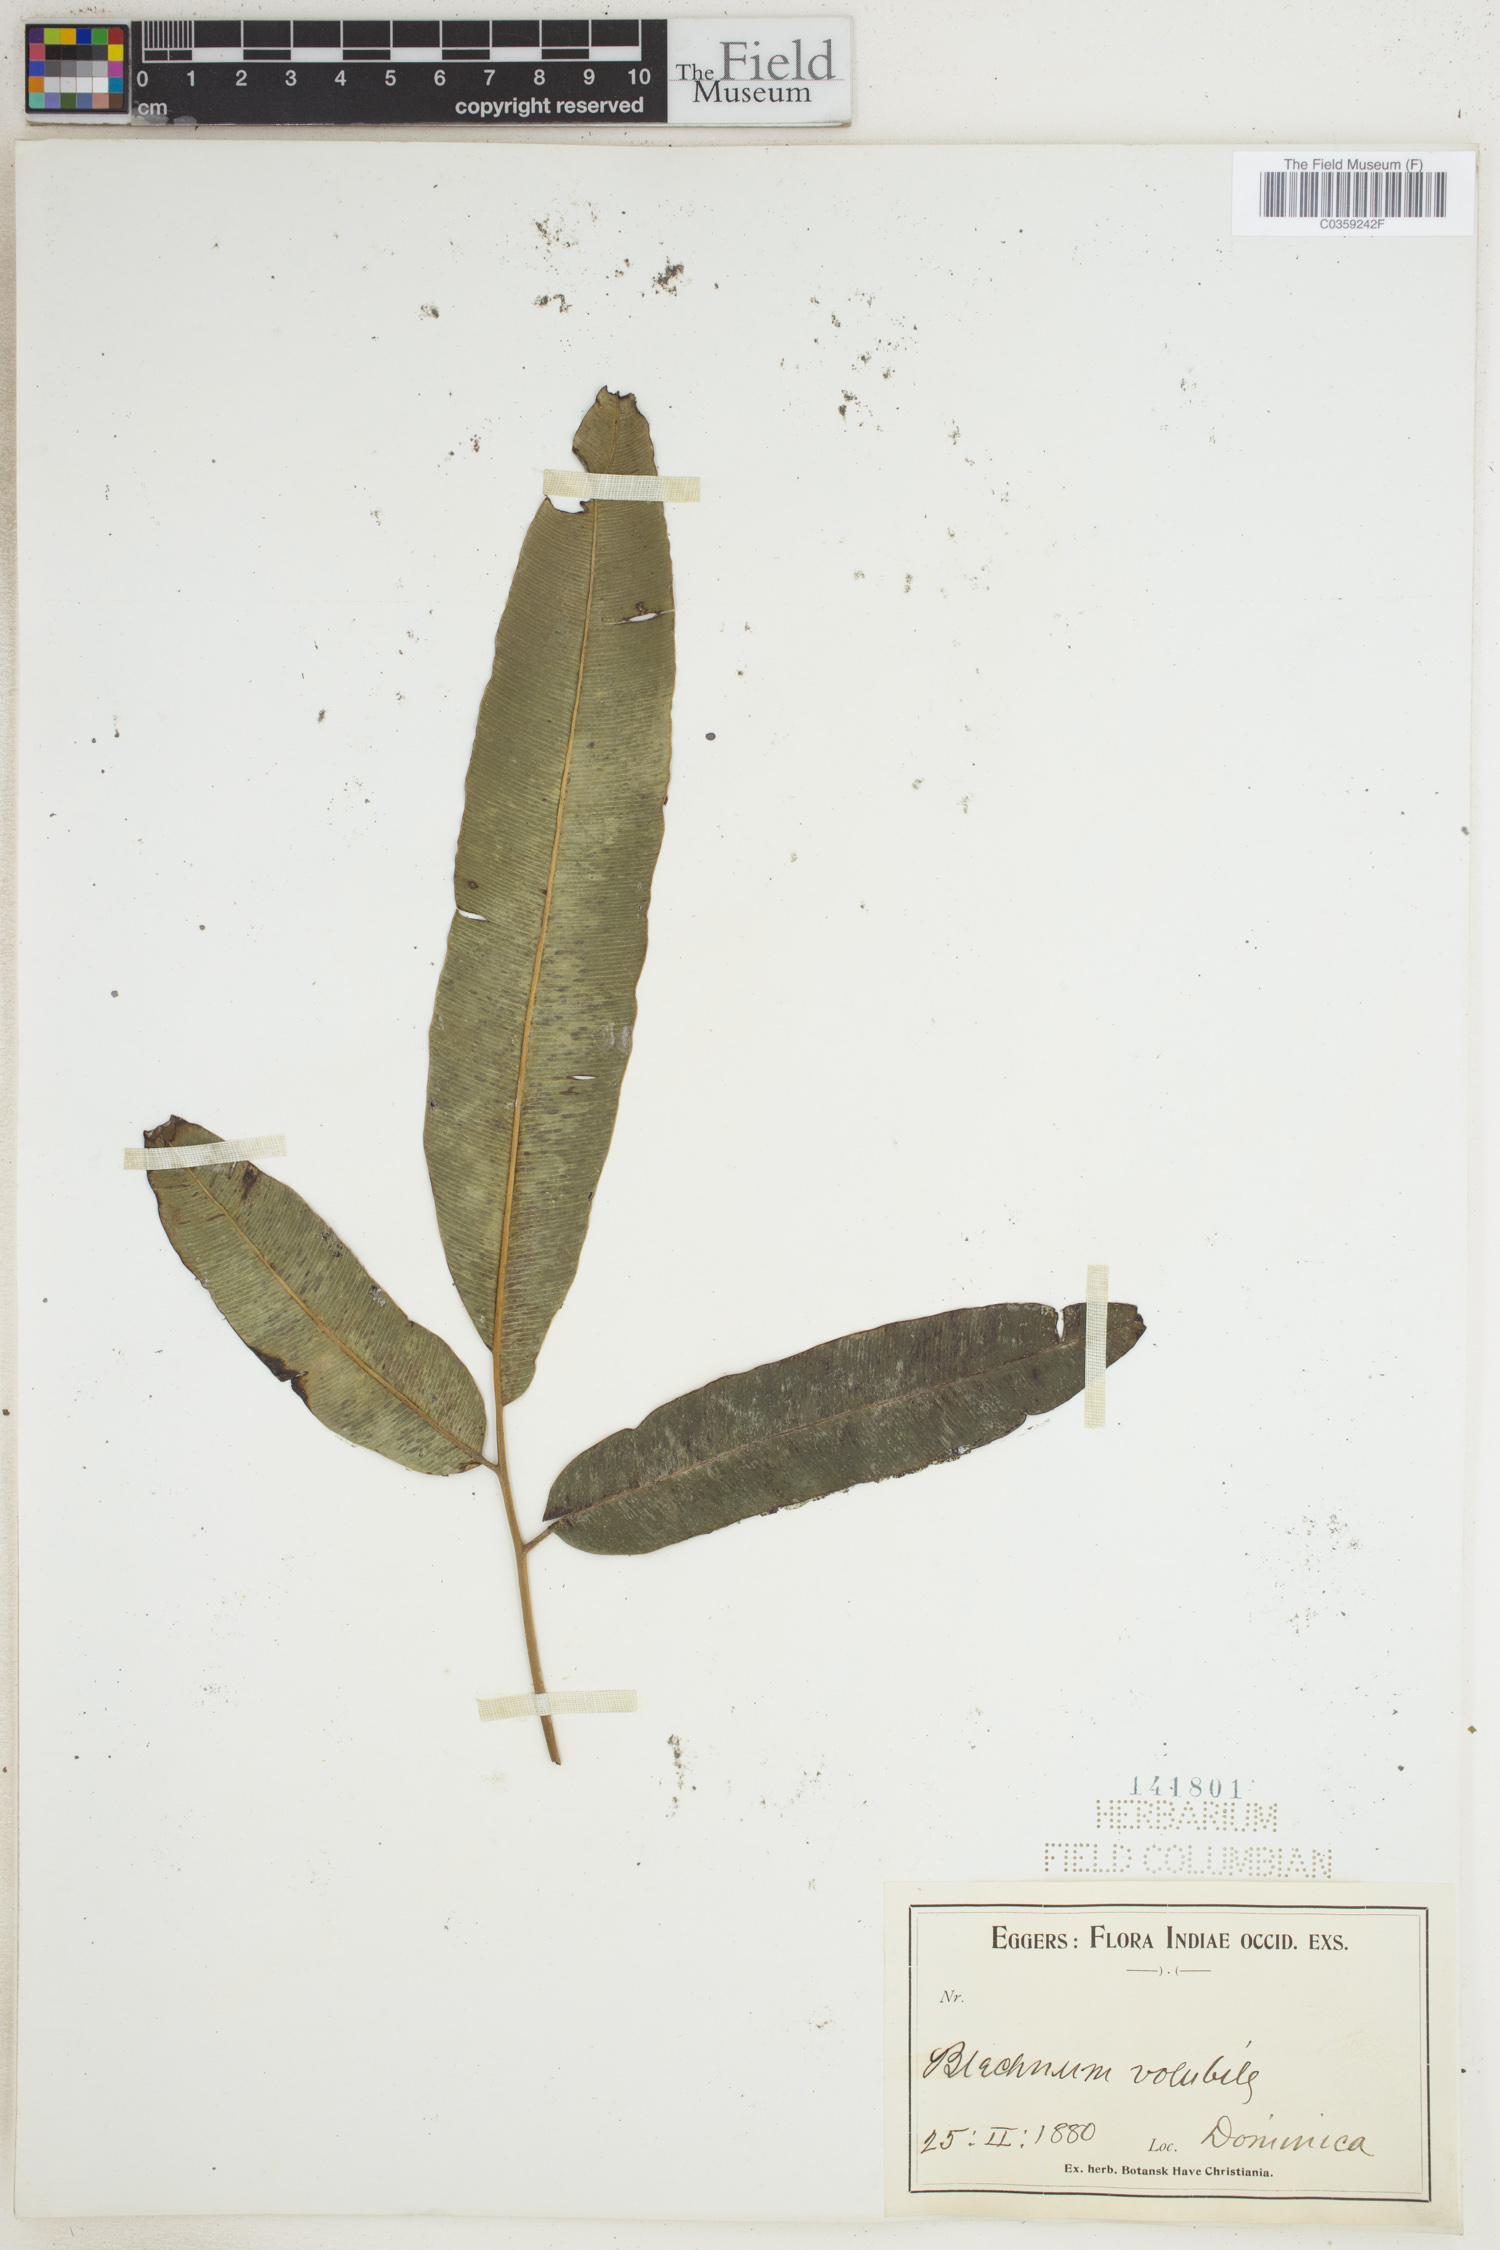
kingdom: Plantae
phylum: Tracheophyta
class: Polypodiopsida
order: Polypodiales
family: Blechnaceae
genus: Salpichlaena
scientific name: Salpichlaena volubilis
